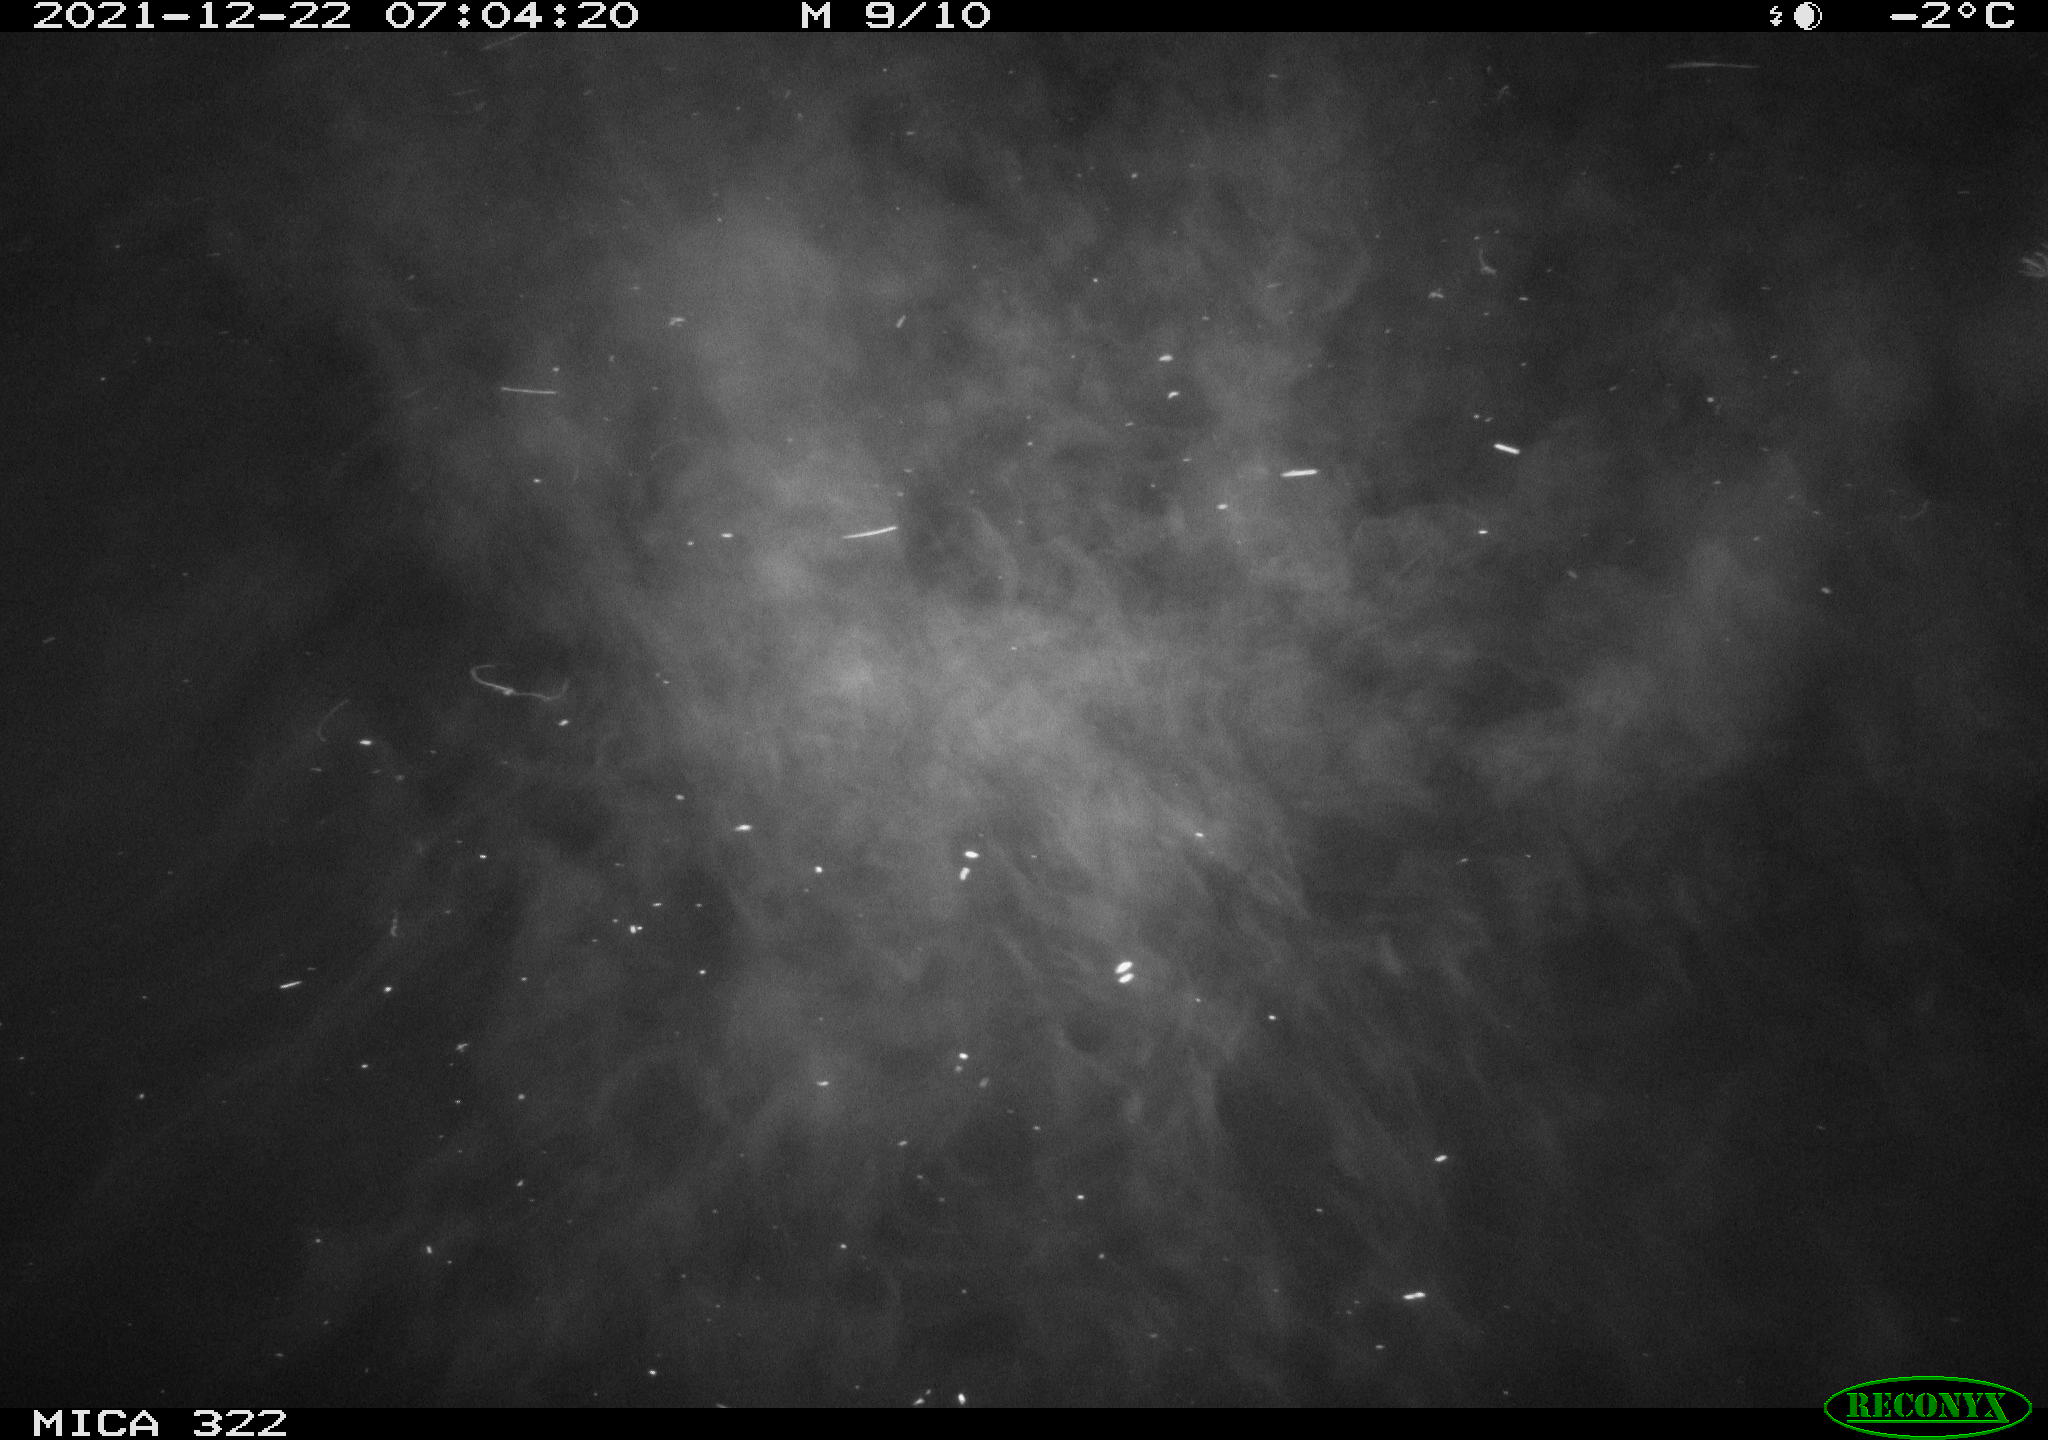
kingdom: Animalia
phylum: Chordata
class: Aves
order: Anseriformes
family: Anatidae
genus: Anas
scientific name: Anas
